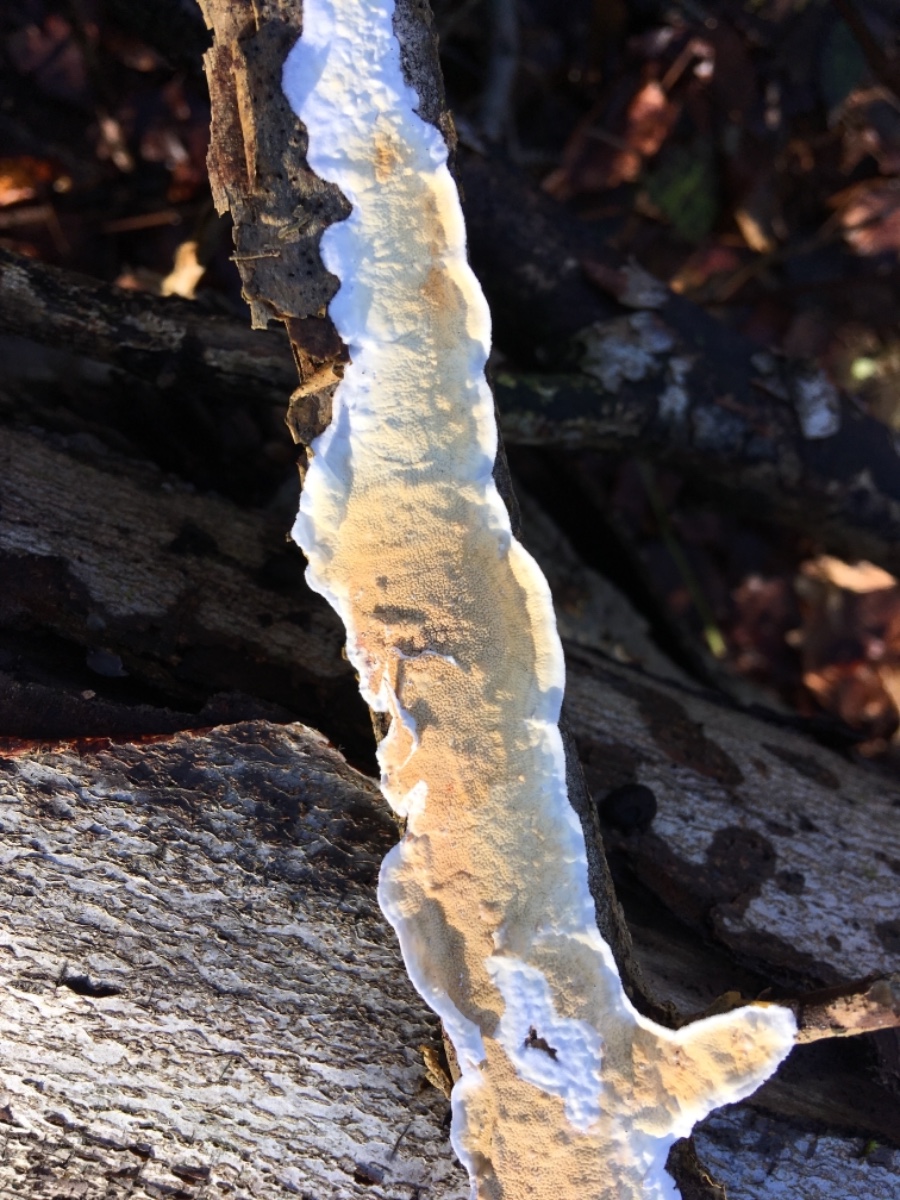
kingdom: Fungi
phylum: Basidiomycota
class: Agaricomycetes
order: Polyporales
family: Irpicaceae
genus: Byssomerulius
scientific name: Byssomerulius corium
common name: læder-åresvamp
